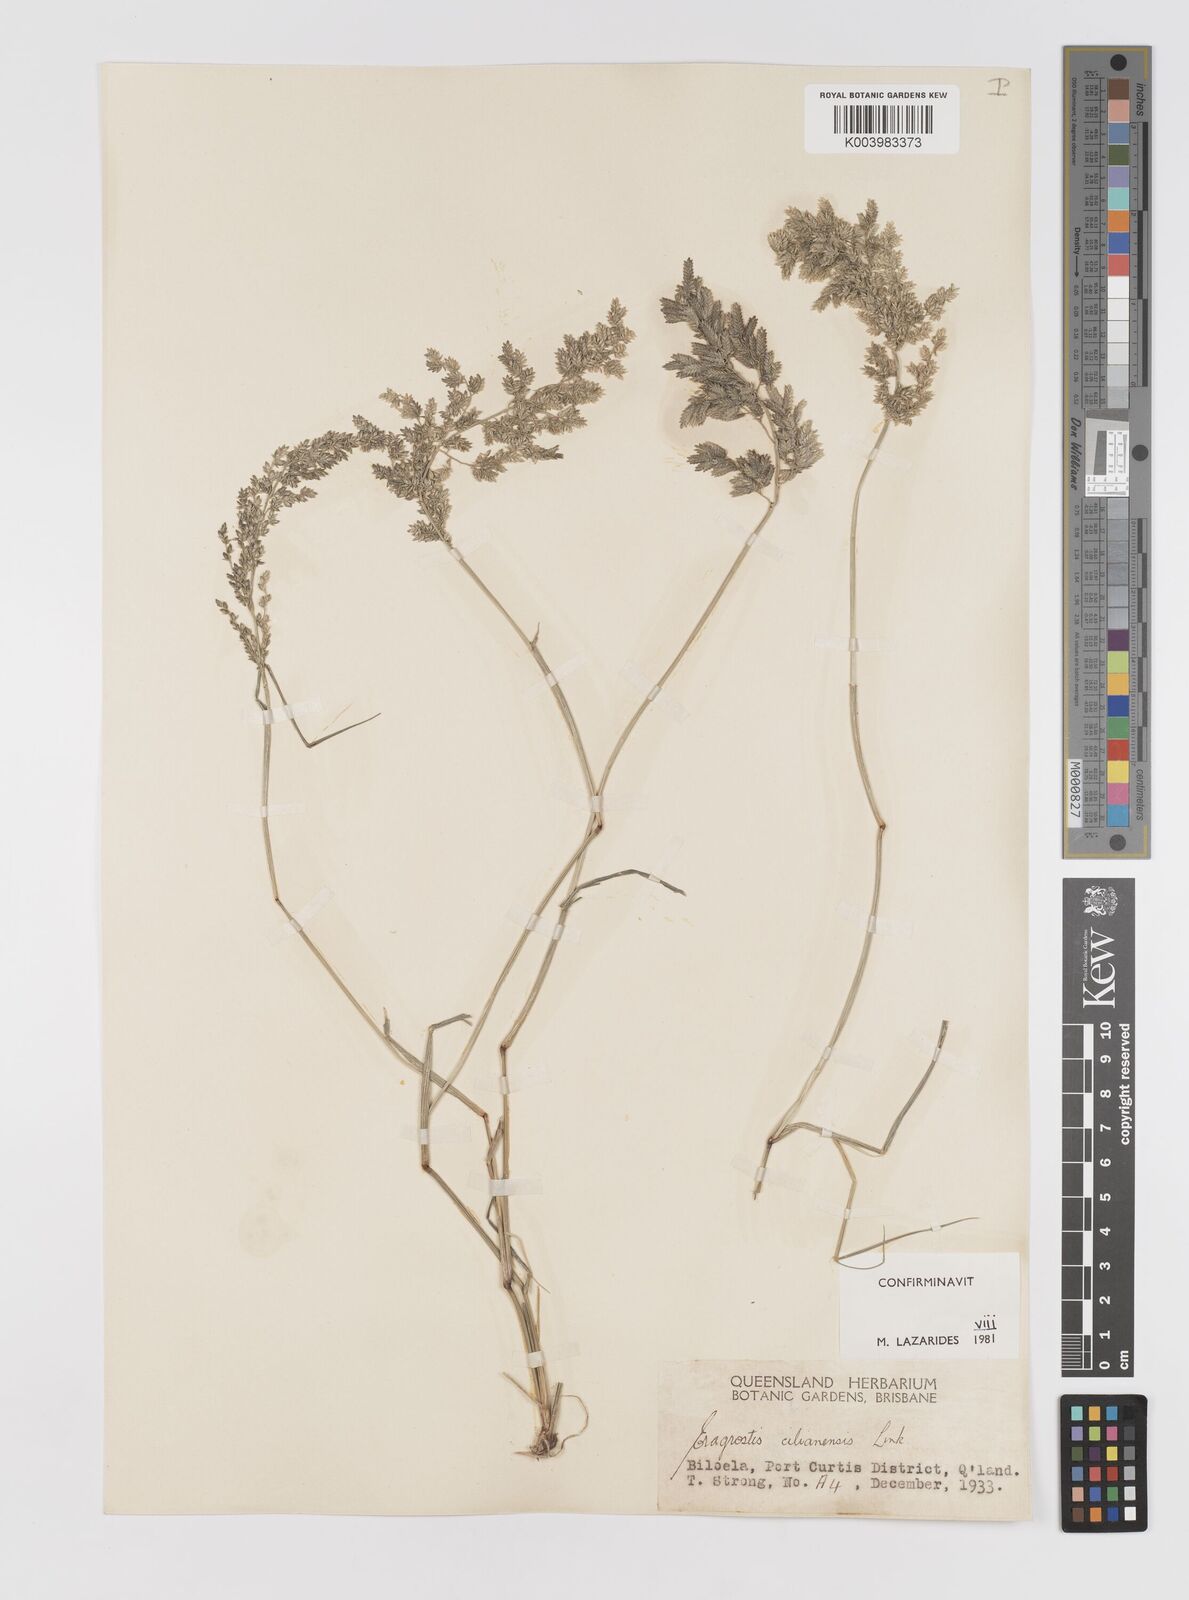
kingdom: Plantae
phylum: Tracheophyta
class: Liliopsida
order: Poales
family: Poaceae
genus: Eragrostis
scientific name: Eragrostis cilianensis
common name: Stinkgrass
